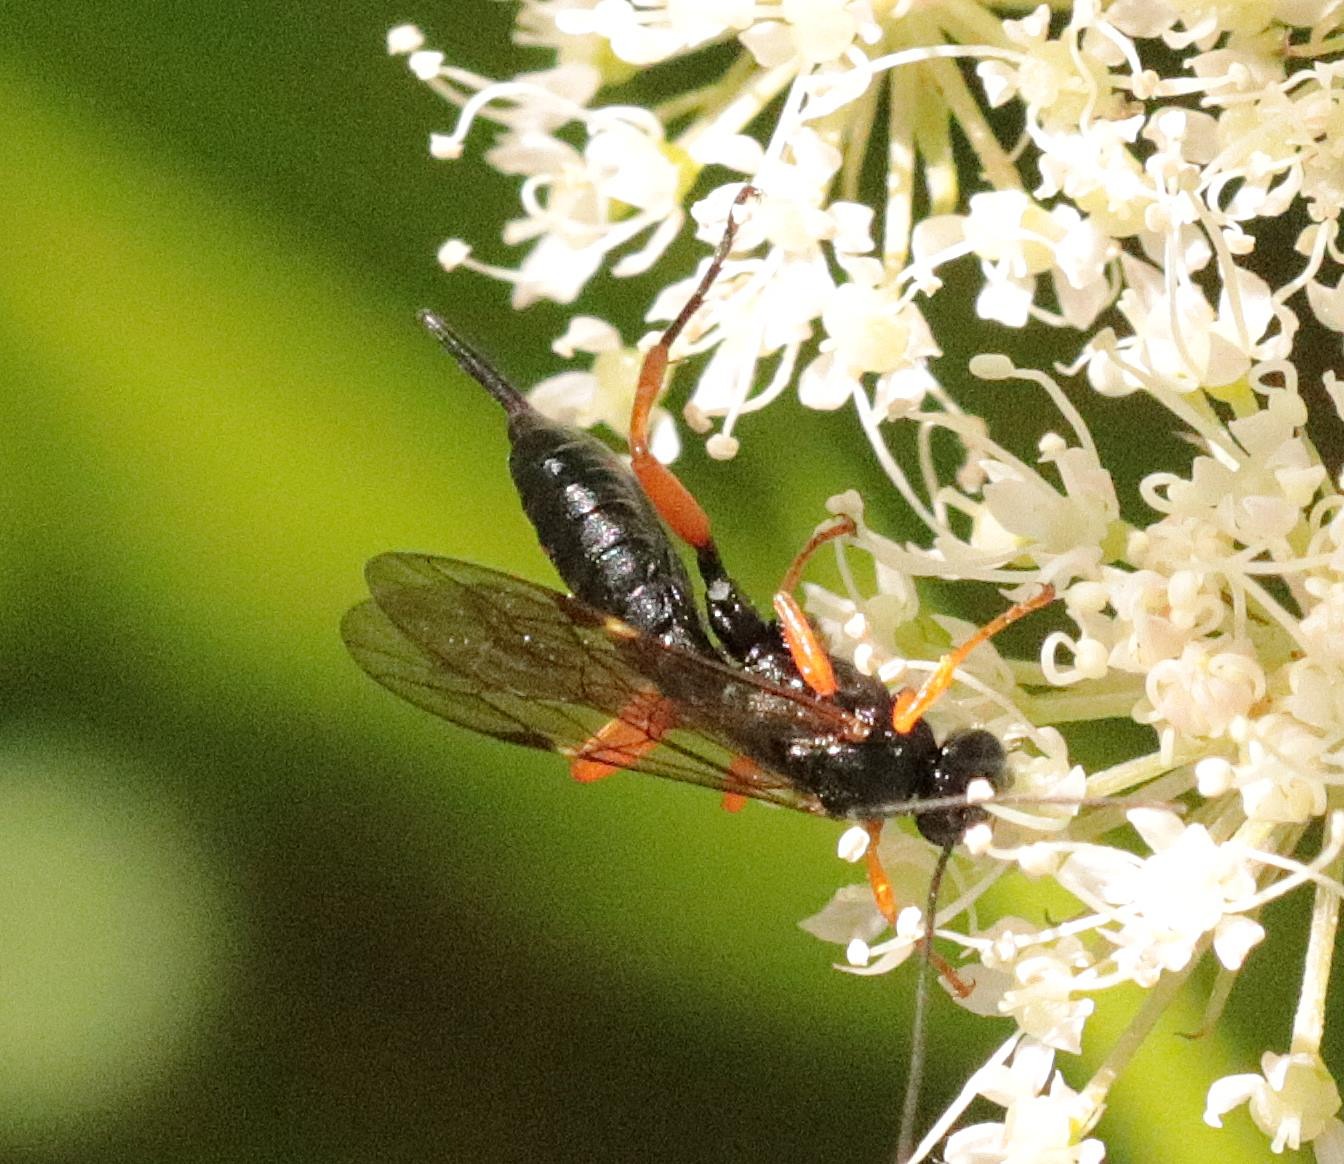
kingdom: Animalia
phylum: Arthropoda
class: Insecta
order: Hymenoptera
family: Ichneumonidae
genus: Pimpla
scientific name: Pimpla rufipes
